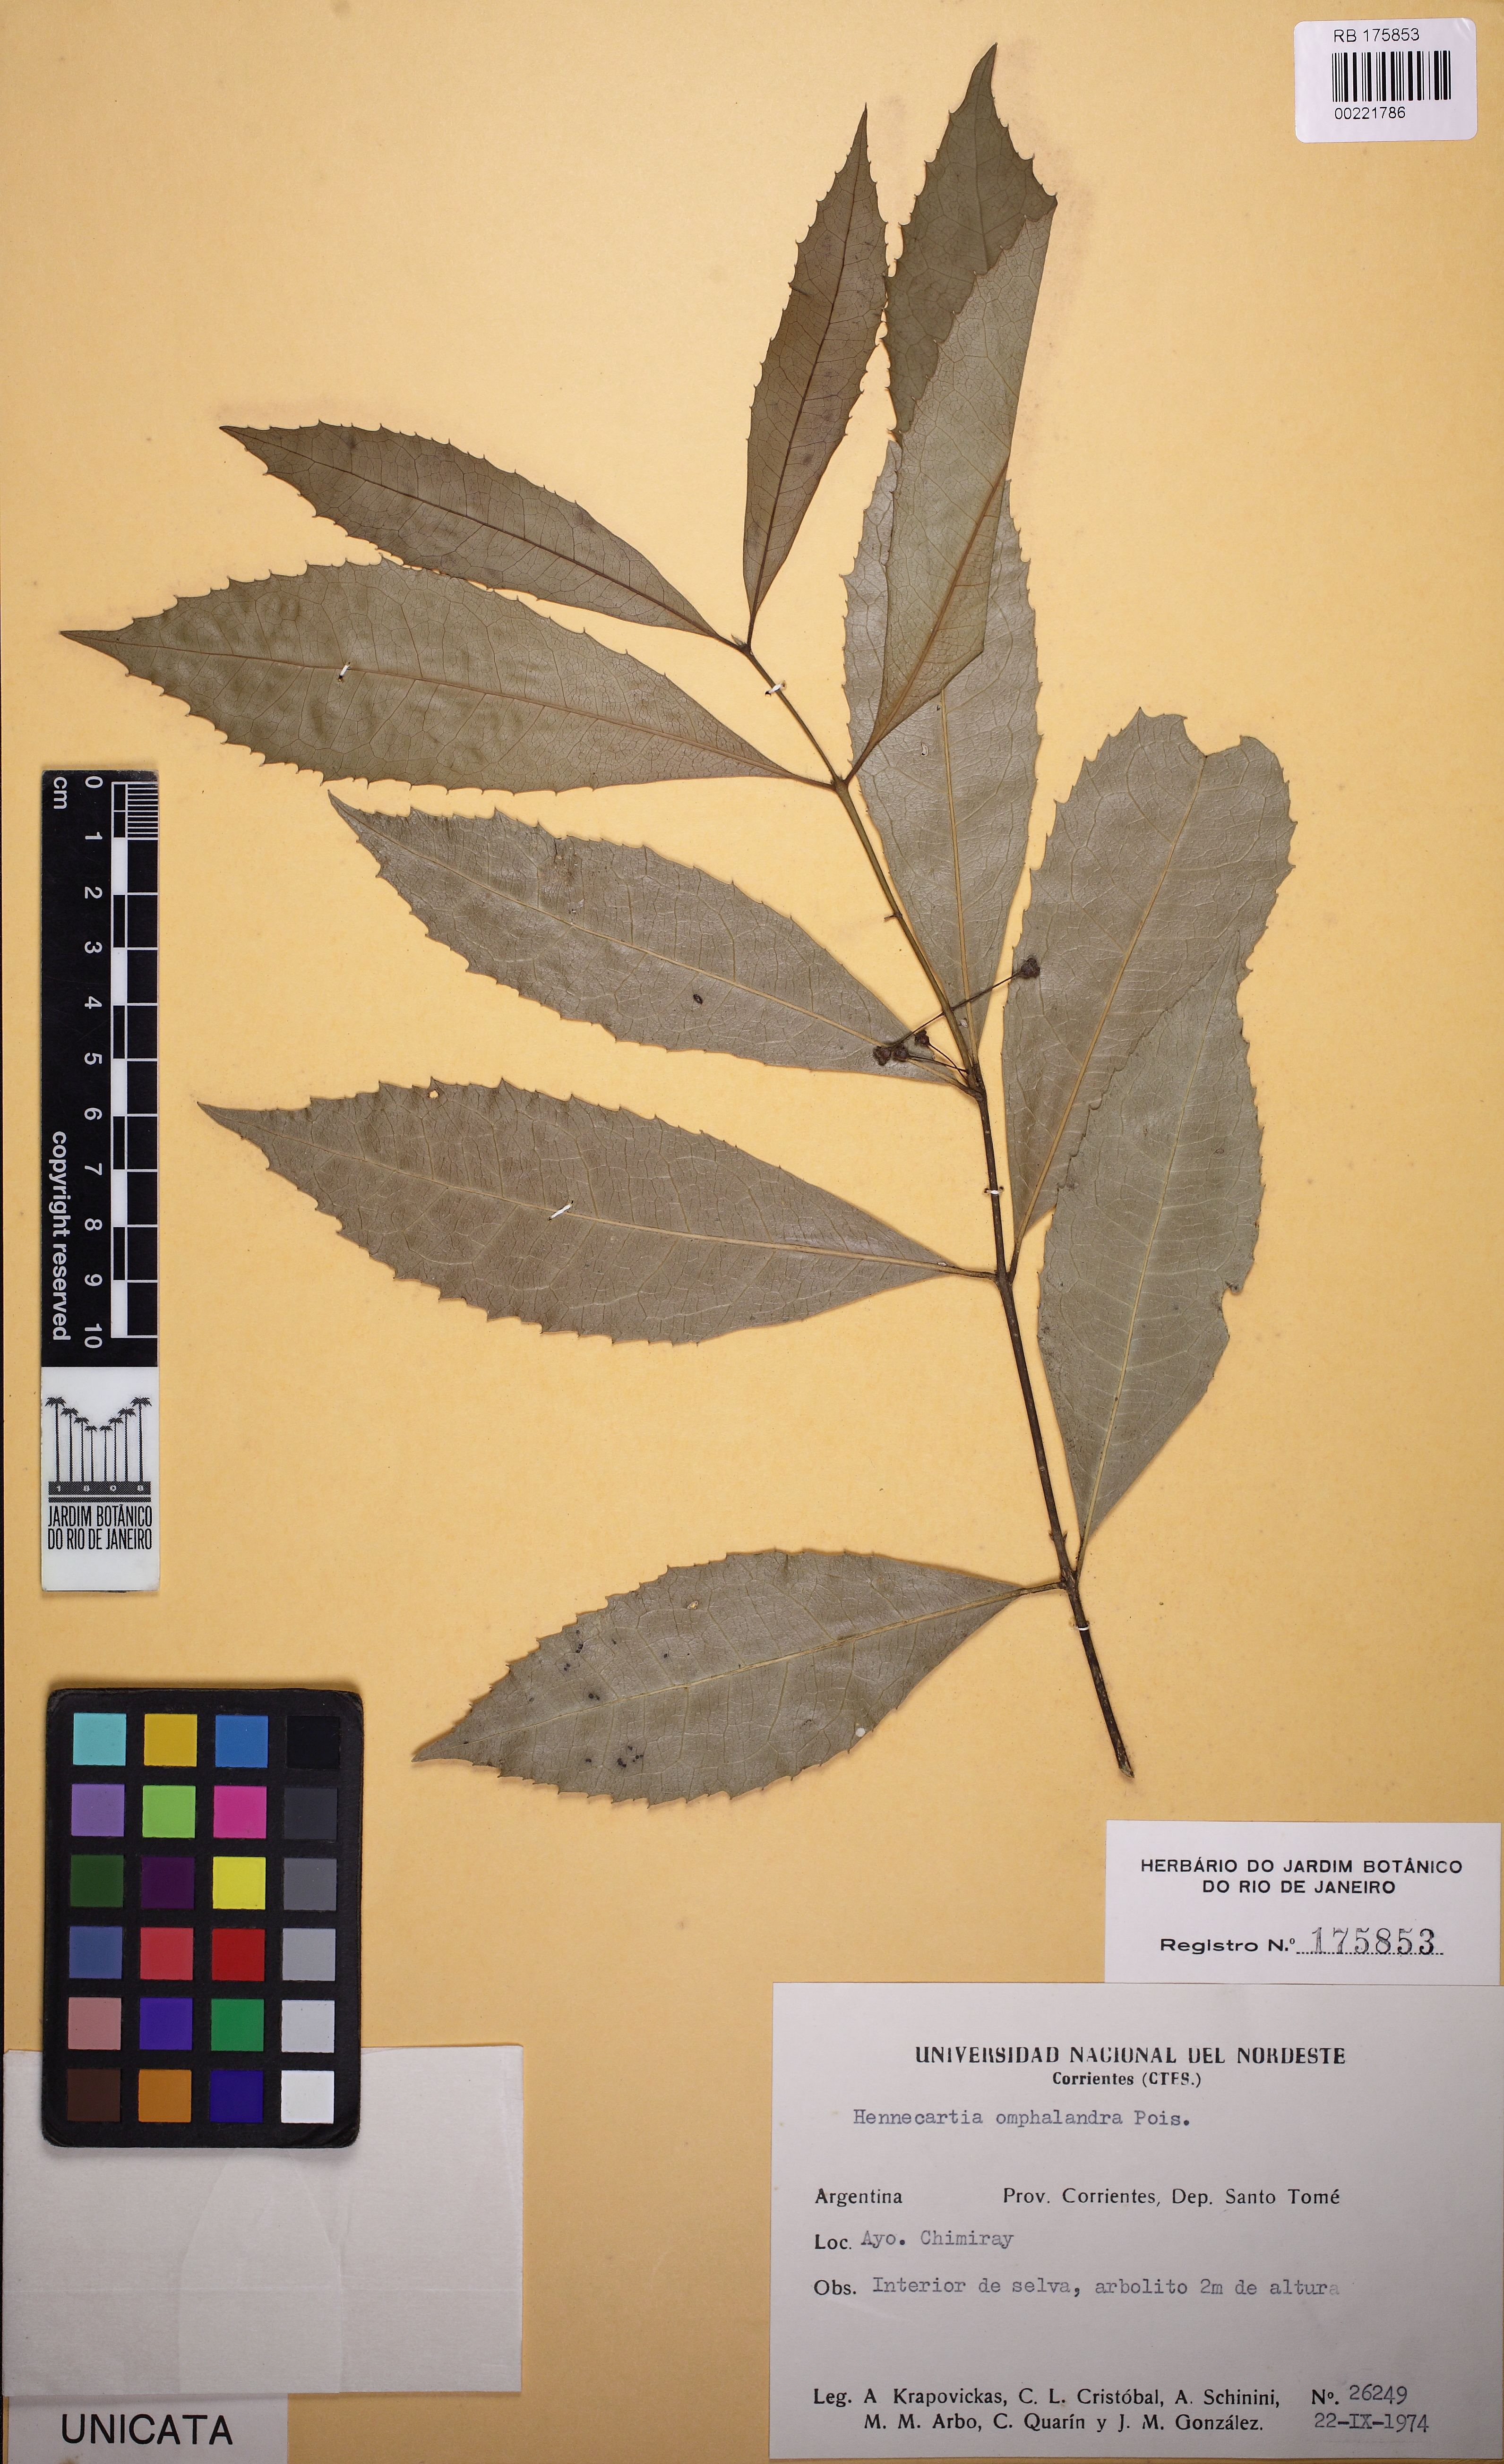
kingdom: Plantae
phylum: Tracheophyta
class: Magnoliopsida
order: Laurales
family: Monimiaceae
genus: Hennecartia
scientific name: Hennecartia omphalandra
